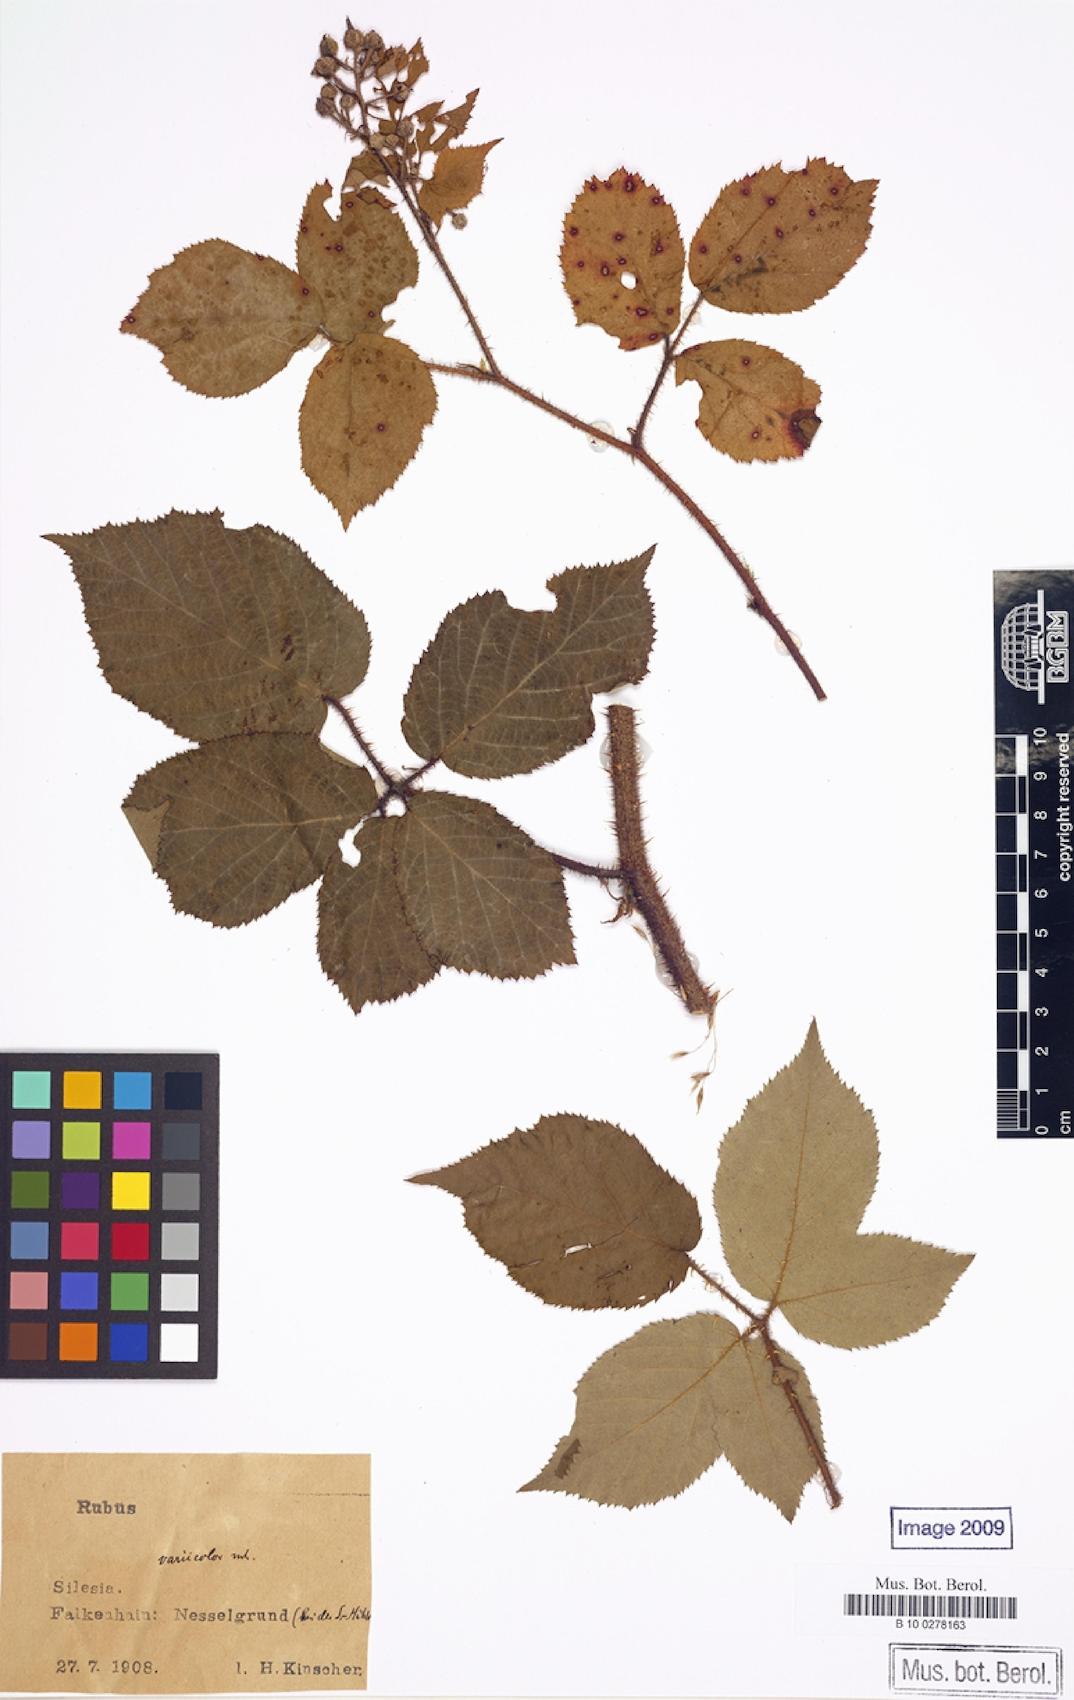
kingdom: Plantae
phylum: Tracheophyta
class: Magnoliopsida
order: Rosales
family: Rosaceae
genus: Rubus
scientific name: Rubus variicolor
